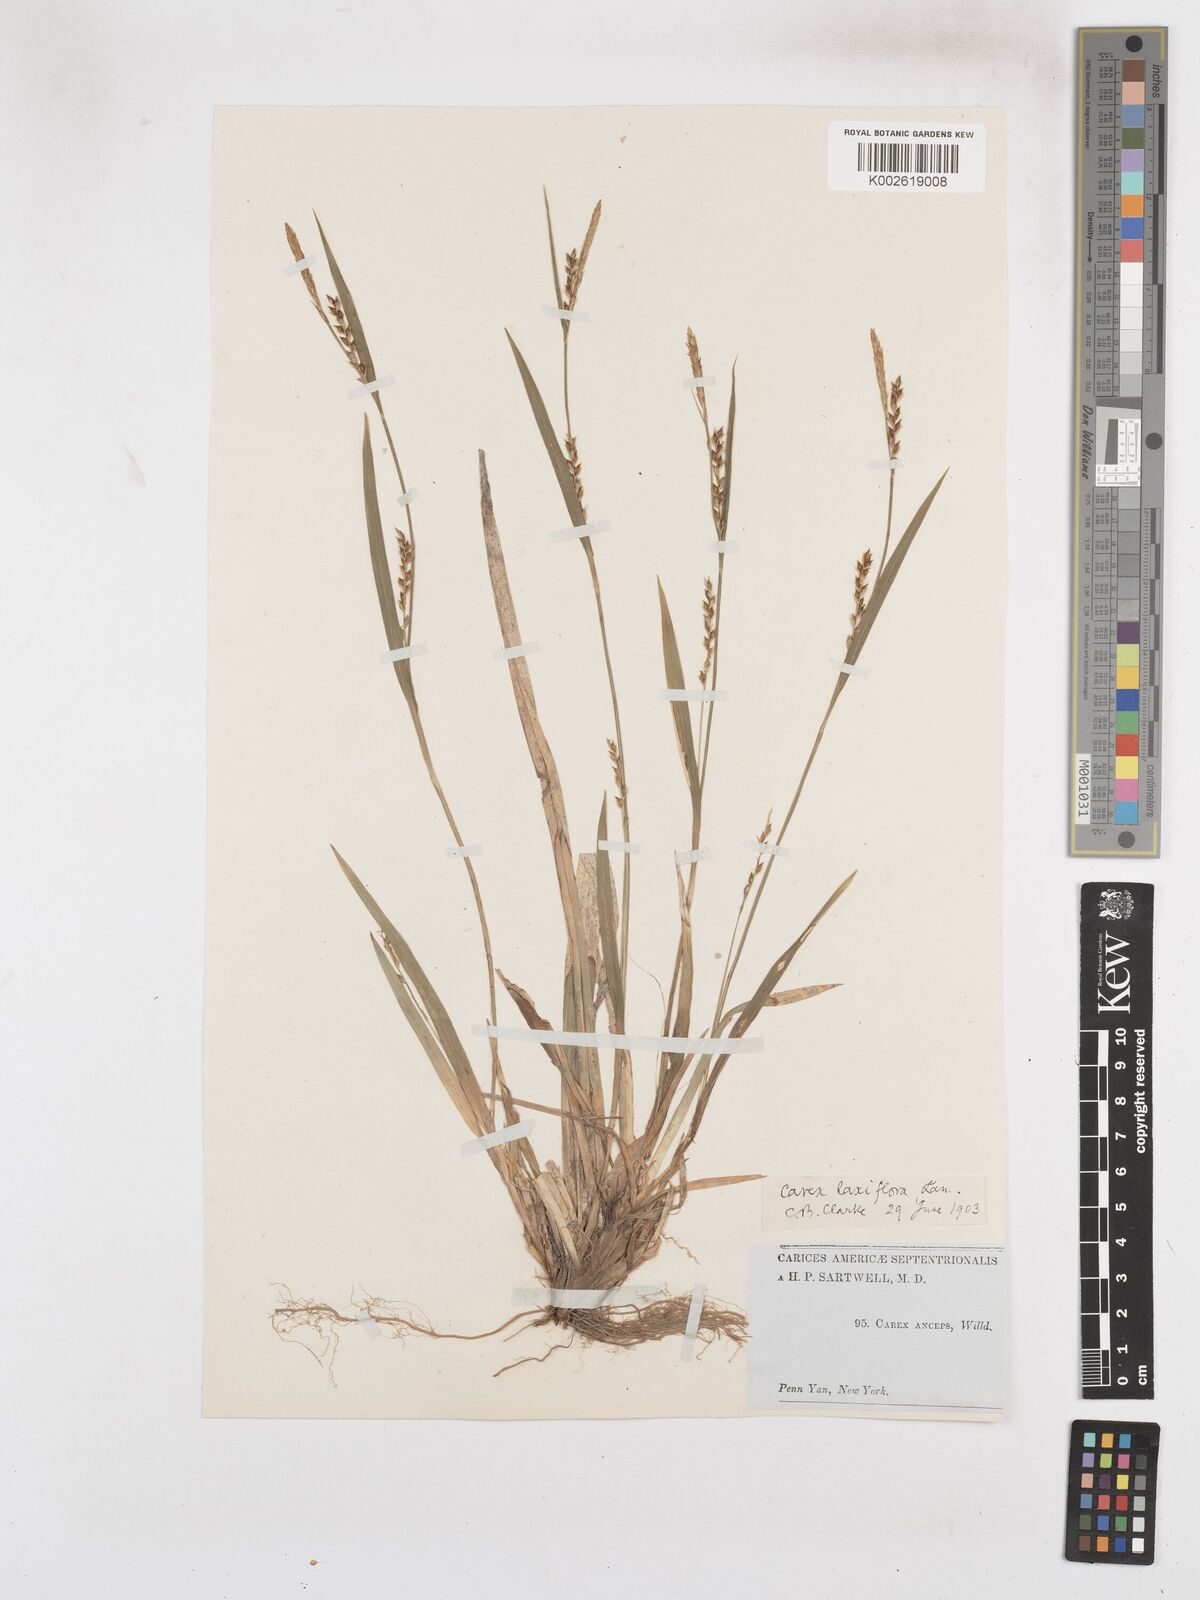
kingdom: Plantae
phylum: Tracheophyta
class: Liliopsida
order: Poales
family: Cyperaceae
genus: Carex
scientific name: Carex leptonervia
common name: Few-nerved wood sedge
